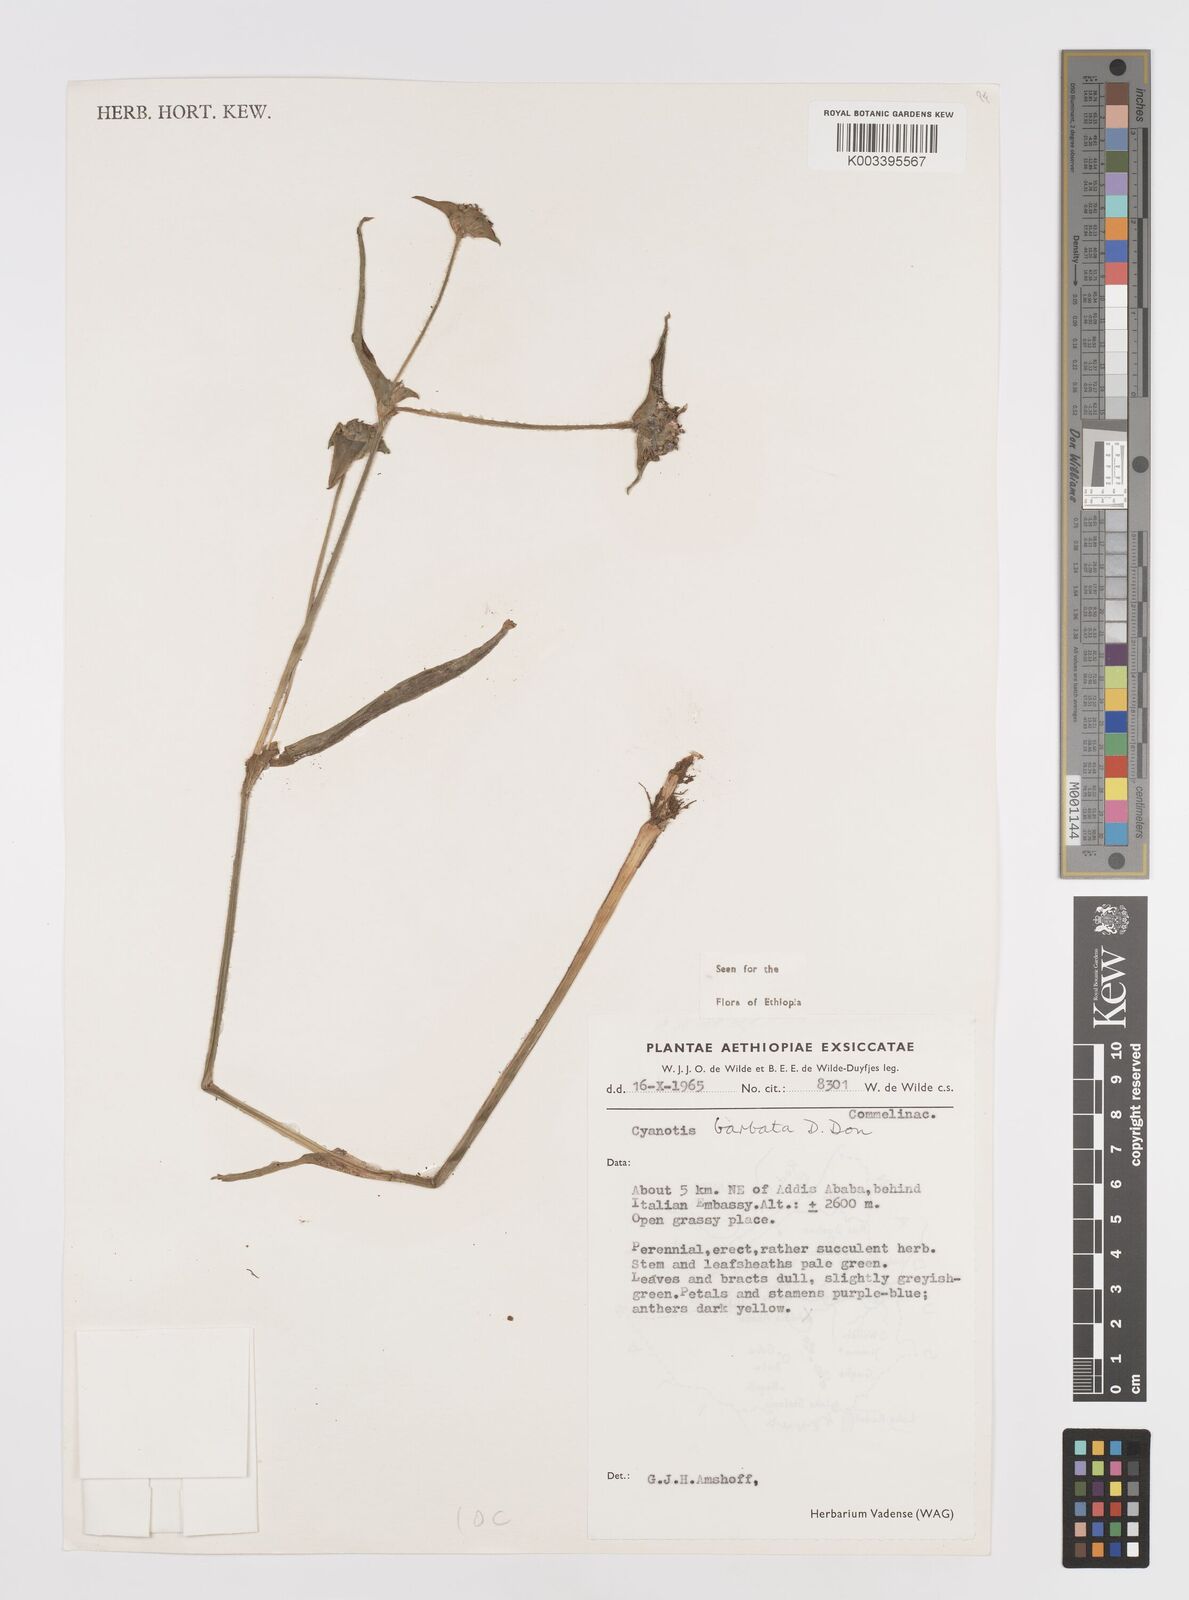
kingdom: Plantae
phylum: Tracheophyta
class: Liliopsida
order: Commelinales
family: Commelinaceae
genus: Cyanotis
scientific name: Cyanotis vaga
